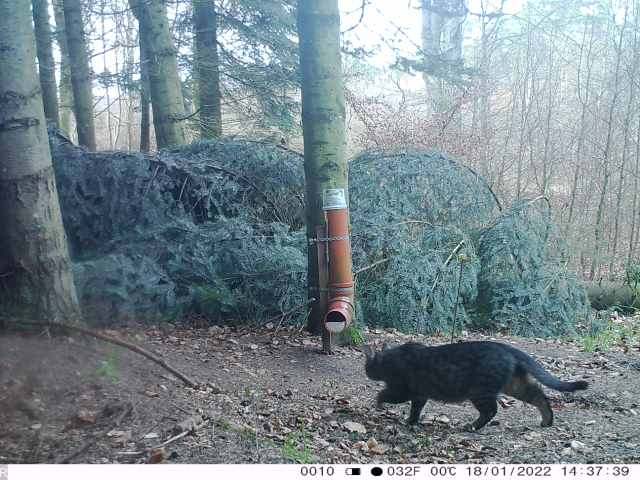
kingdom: Animalia
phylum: Chordata
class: Mammalia
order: Carnivora
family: Felidae
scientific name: Felidae
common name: Katte
